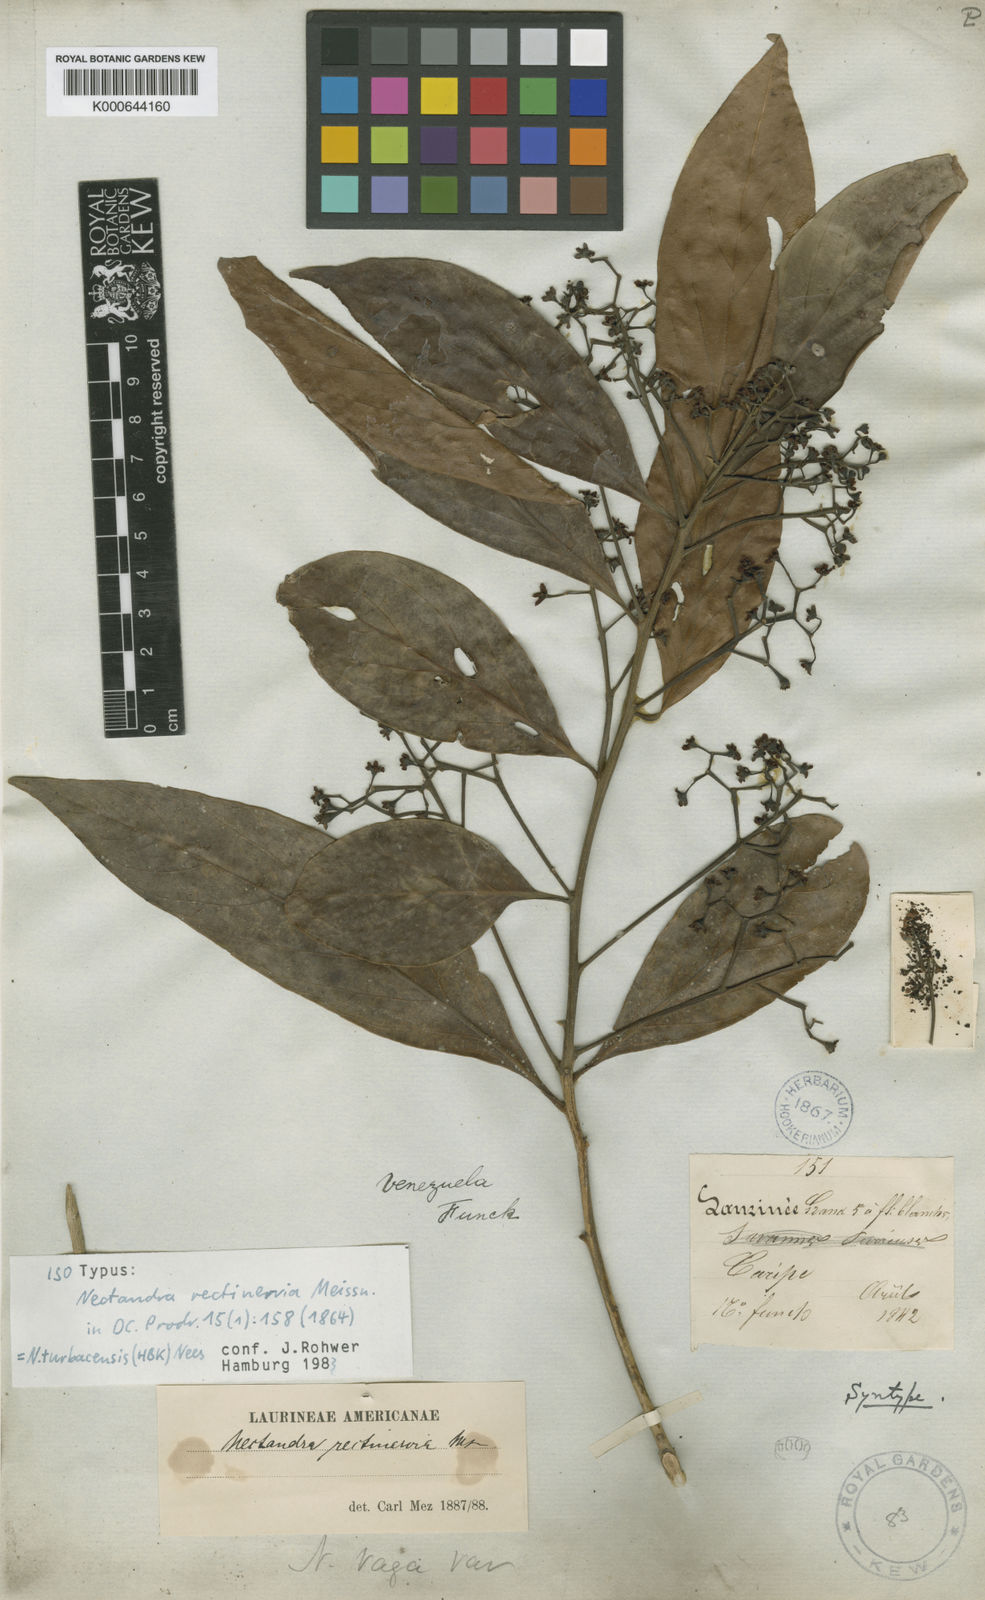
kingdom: Plantae
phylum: Tracheophyta
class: Magnoliopsida
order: Laurales
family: Lauraceae
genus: Nectandra
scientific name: Nectandra turbacensis
